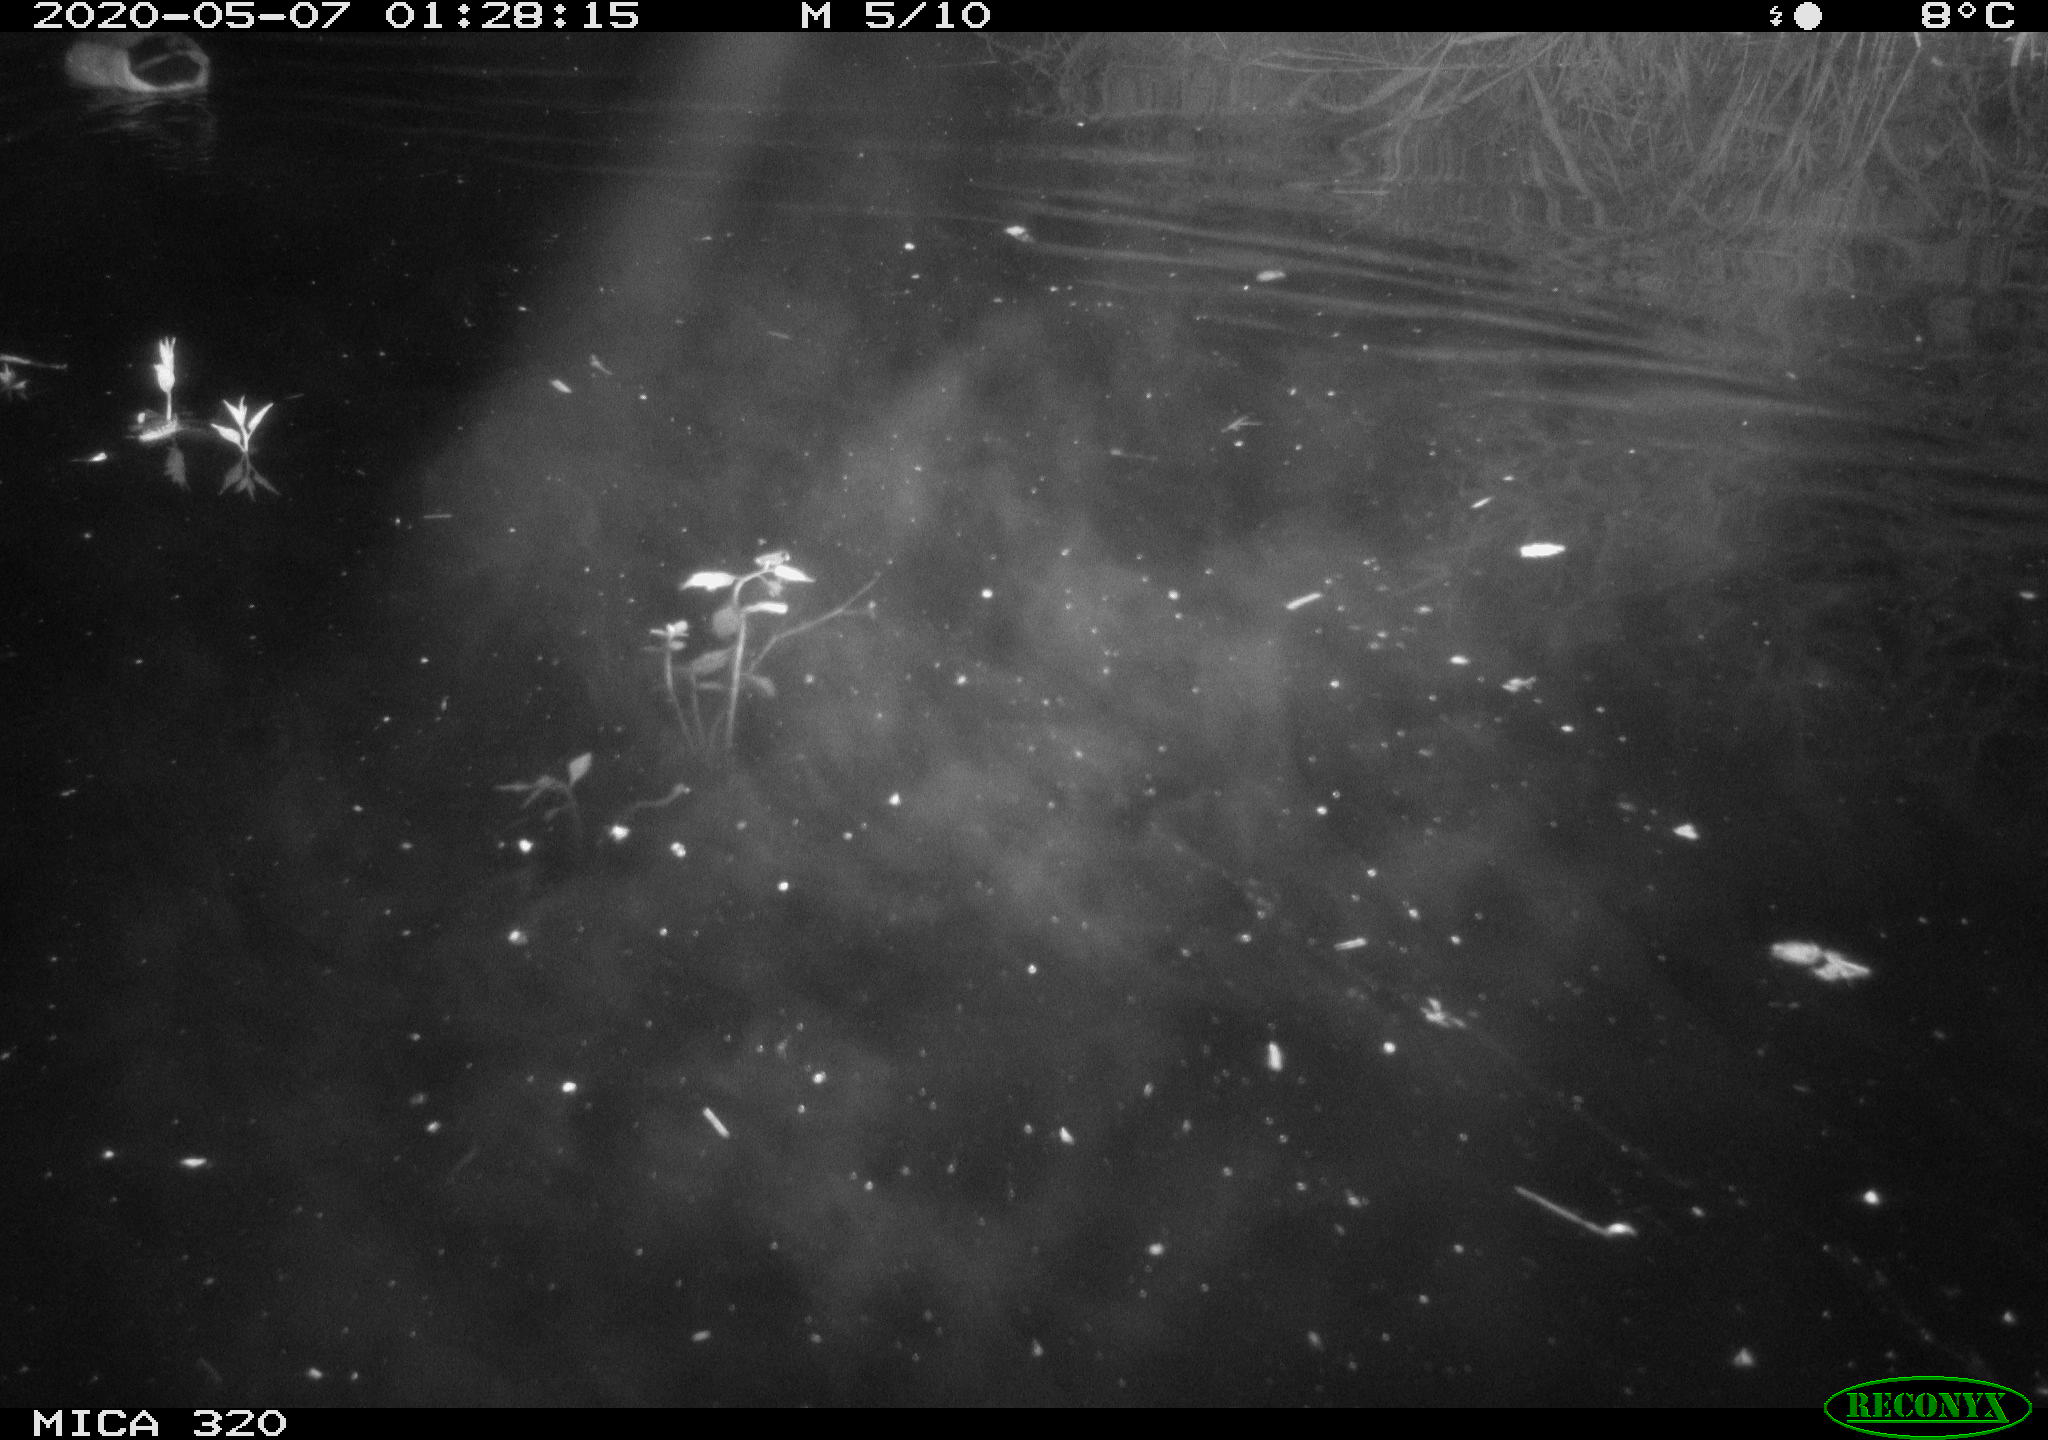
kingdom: Animalia
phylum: Chordata
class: Aves
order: Anseriformes
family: Anatidae
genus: Anas
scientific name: Anas platyrhynchos
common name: Mallard
